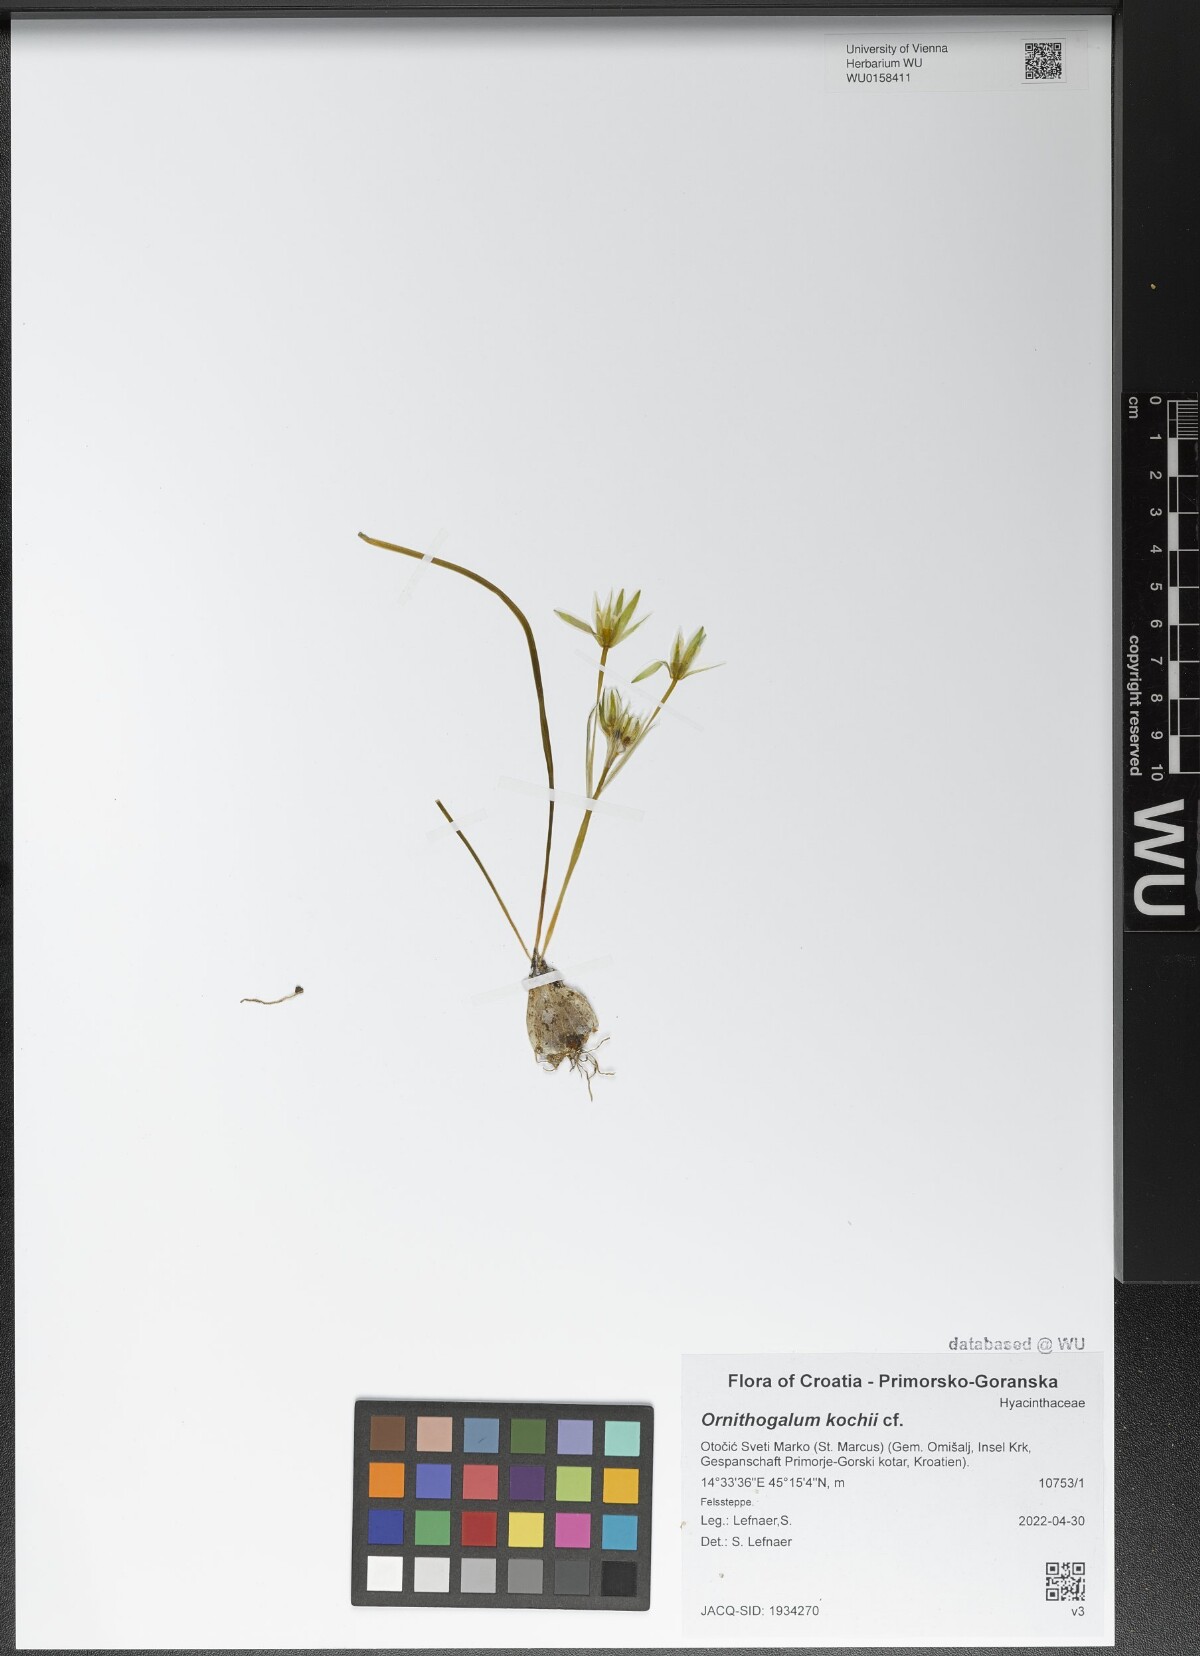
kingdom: Plantae
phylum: Tracheophyta
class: Liliopsida
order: Asparagales
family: Asparagaceae
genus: Ornithogalum
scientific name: Ornithogalum orthophyllum
